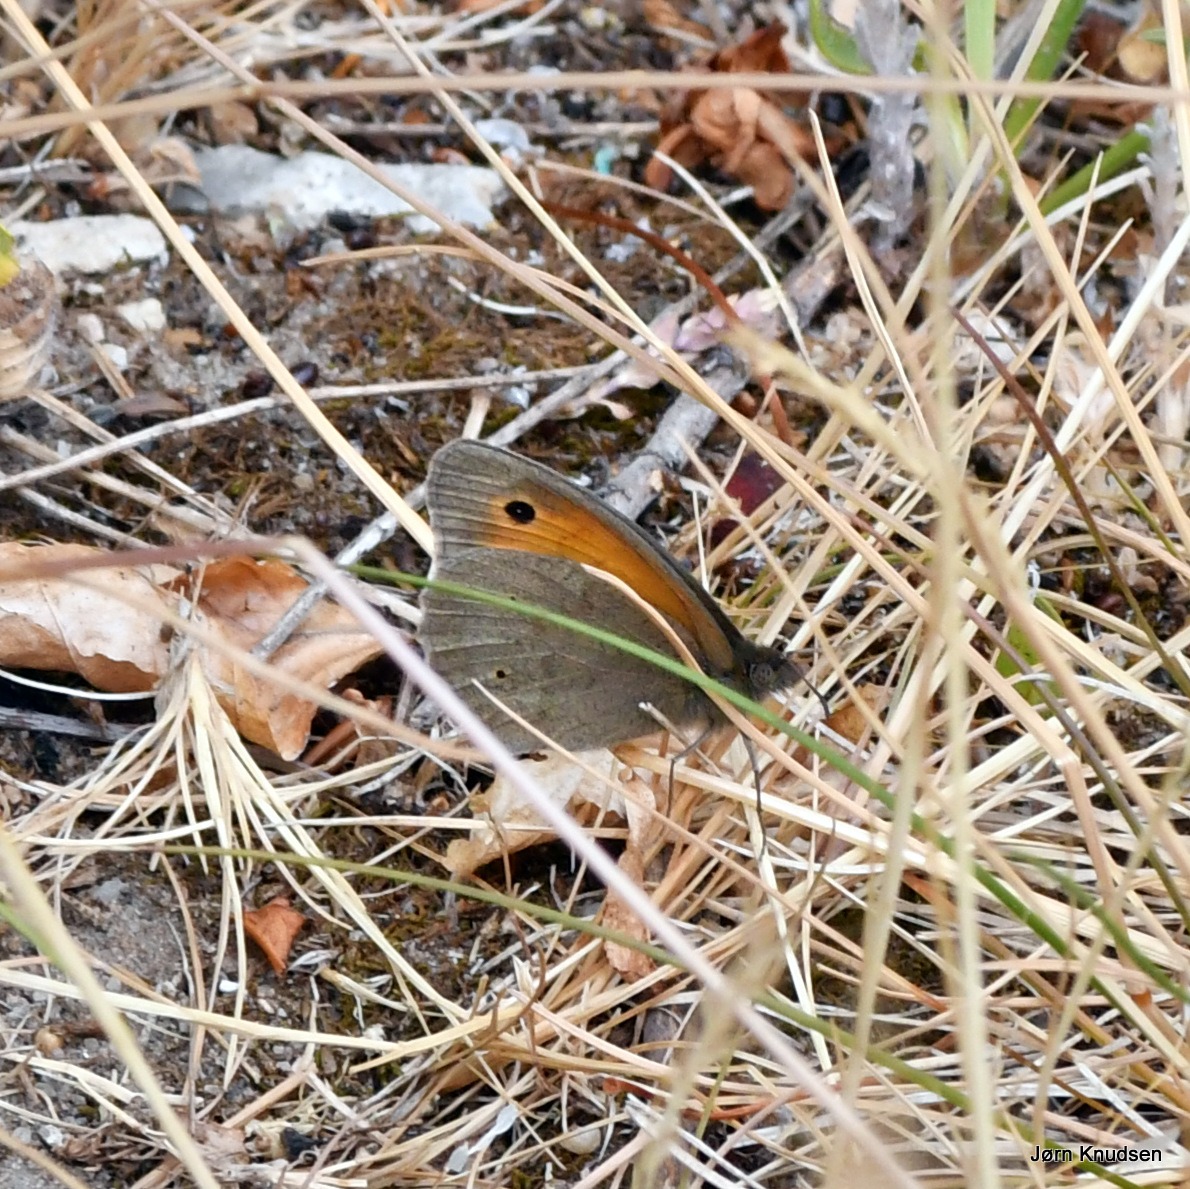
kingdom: Animalia
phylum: Arthropoda
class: Insecta
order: Lepidoptera
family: Nymphalidae
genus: Maniola
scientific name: Maniola jurtina
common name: Græsrandøje
